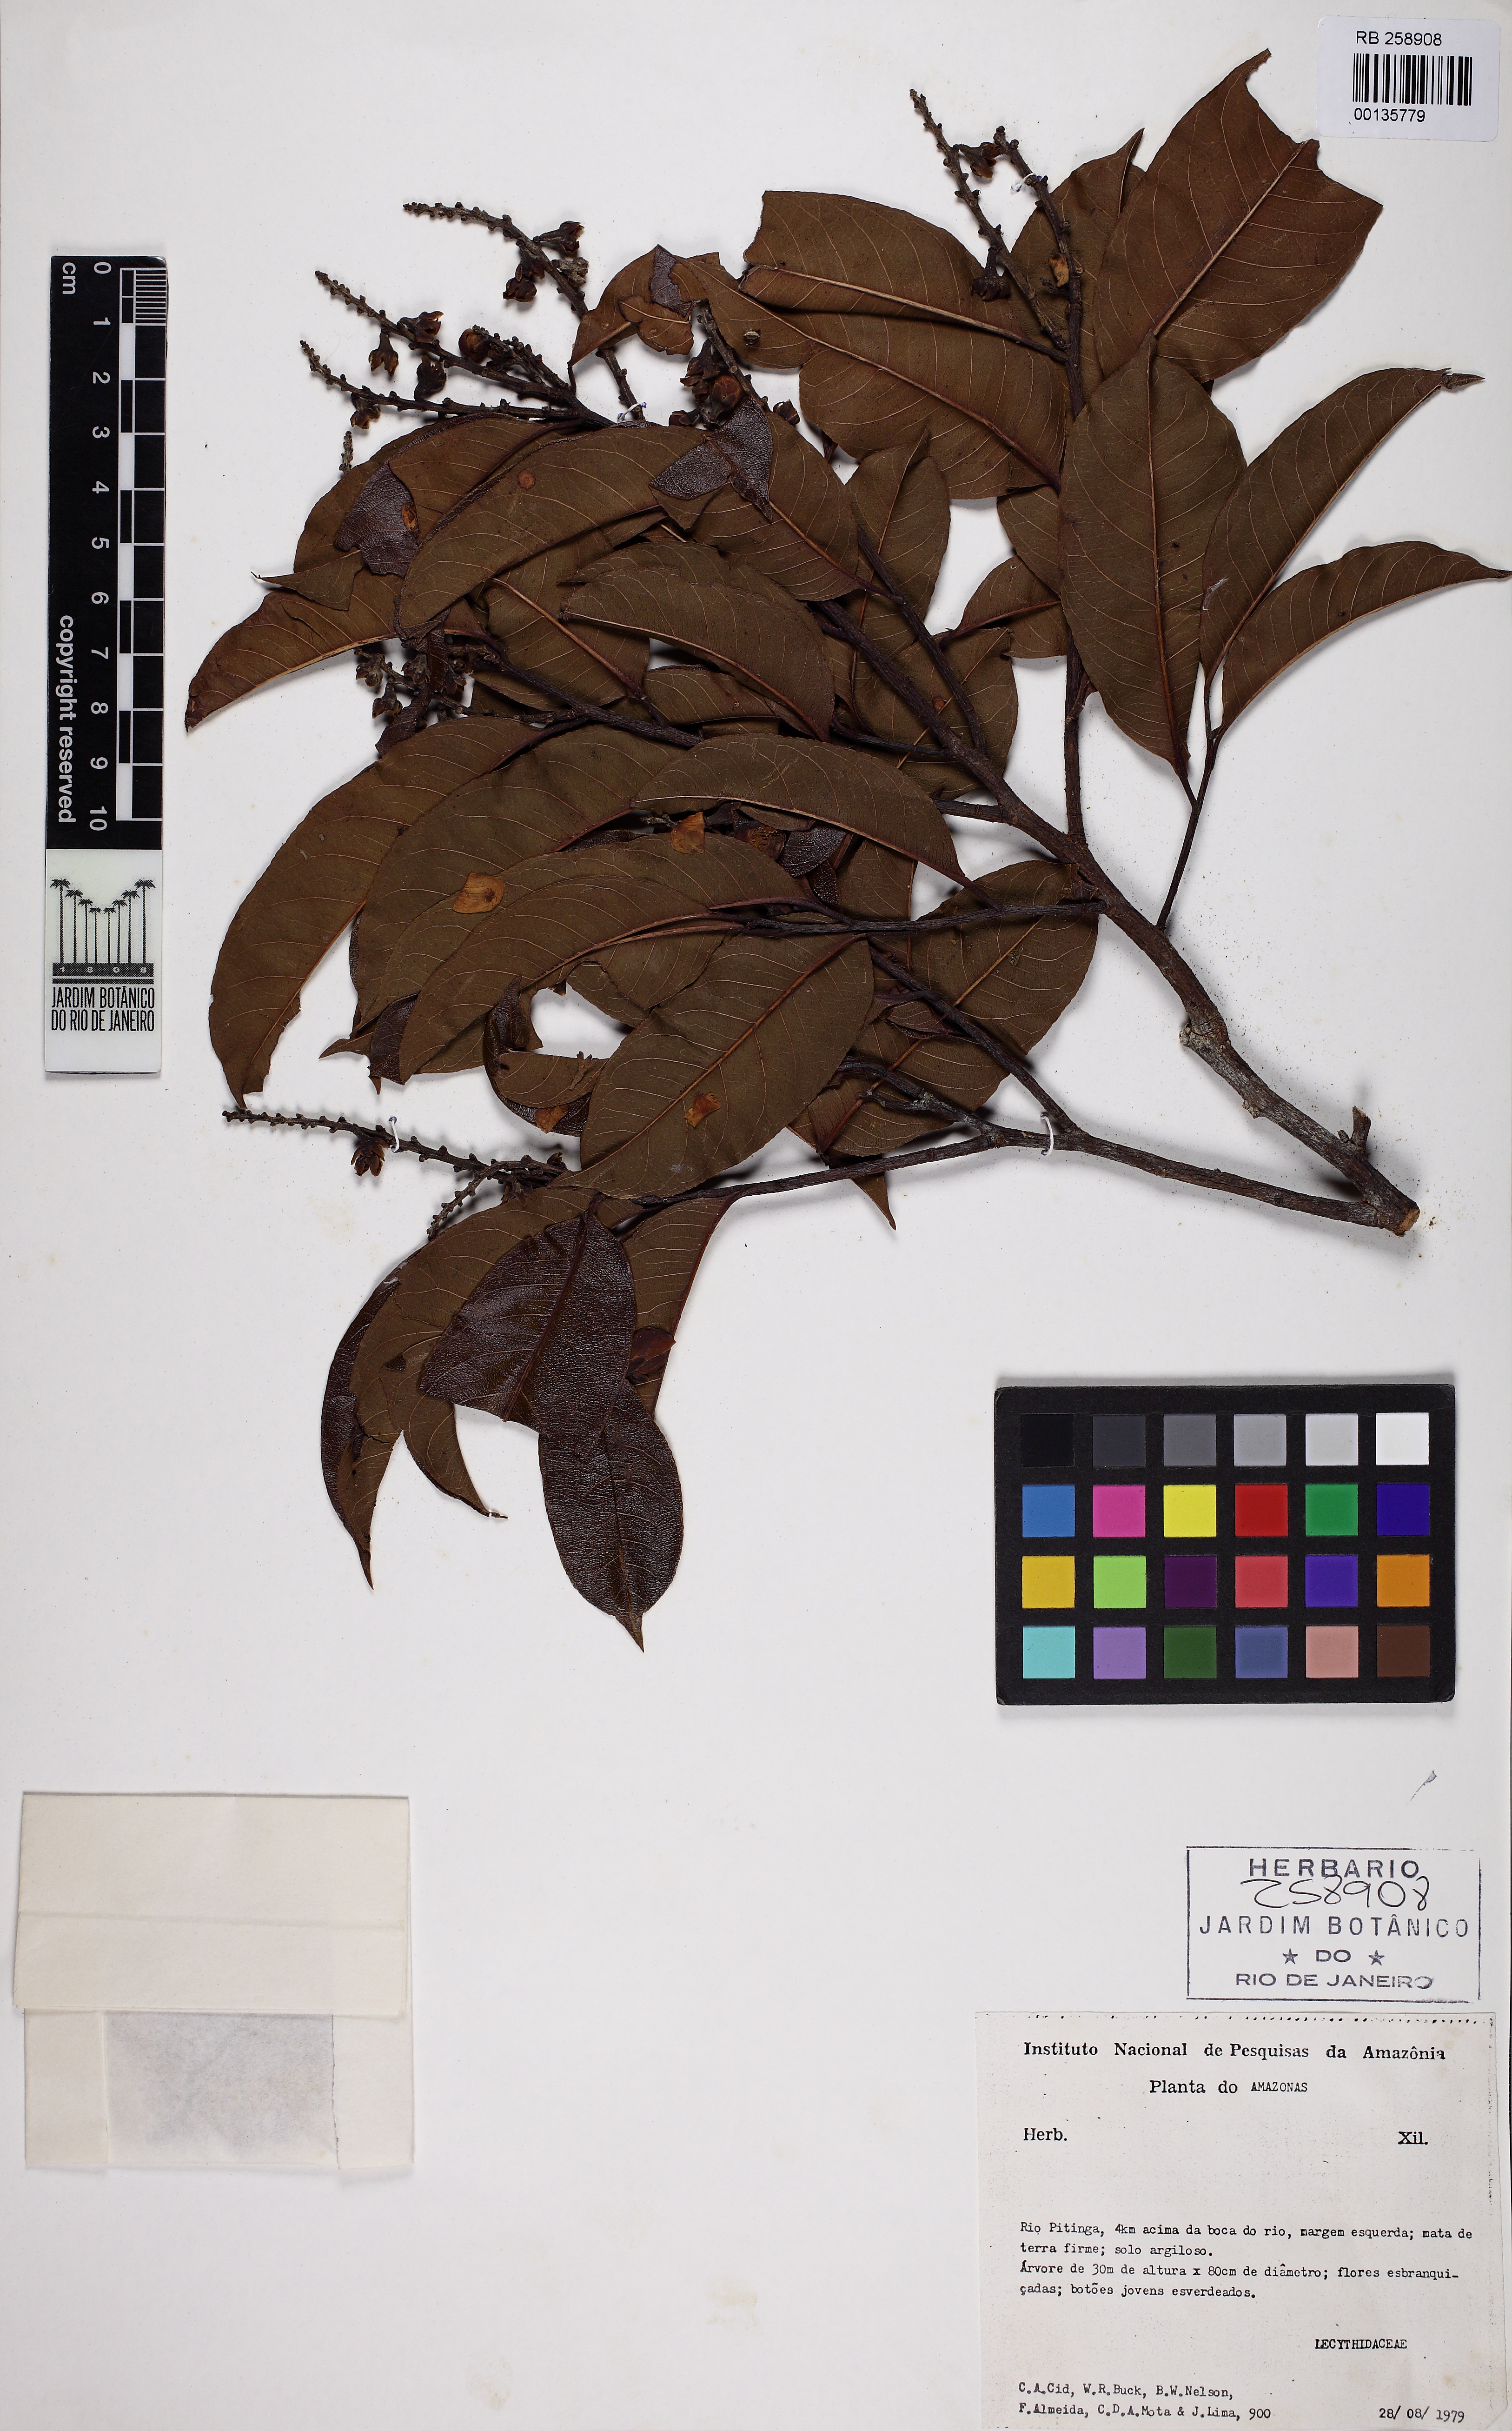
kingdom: Plantae
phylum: Tracheophyta
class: Magnoliopsida
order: Ericales
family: Lecythidaceae
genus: Lecythis
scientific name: Lecythis chartacea
